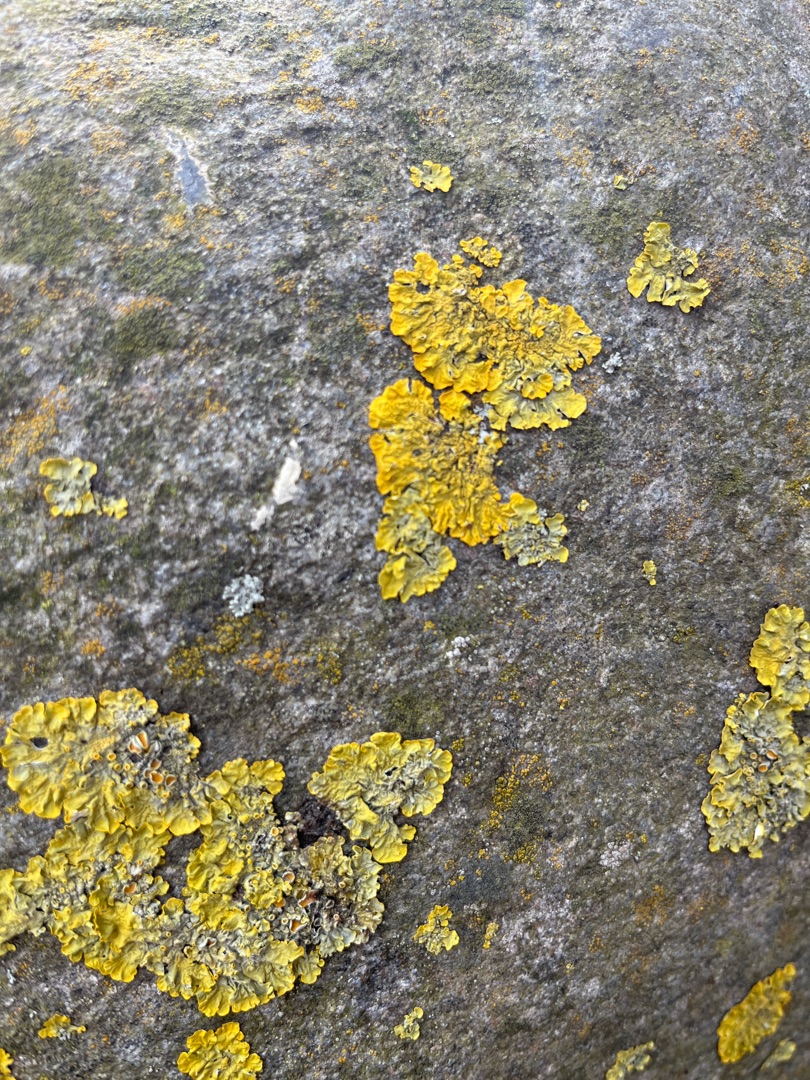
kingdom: Fungi
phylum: Ascomycota
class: Lecanoromycetes
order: Teloschistales
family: Teloschistaceae
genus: Xanthoria
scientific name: Xanthoria parietina
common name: Almindelig væggelav
